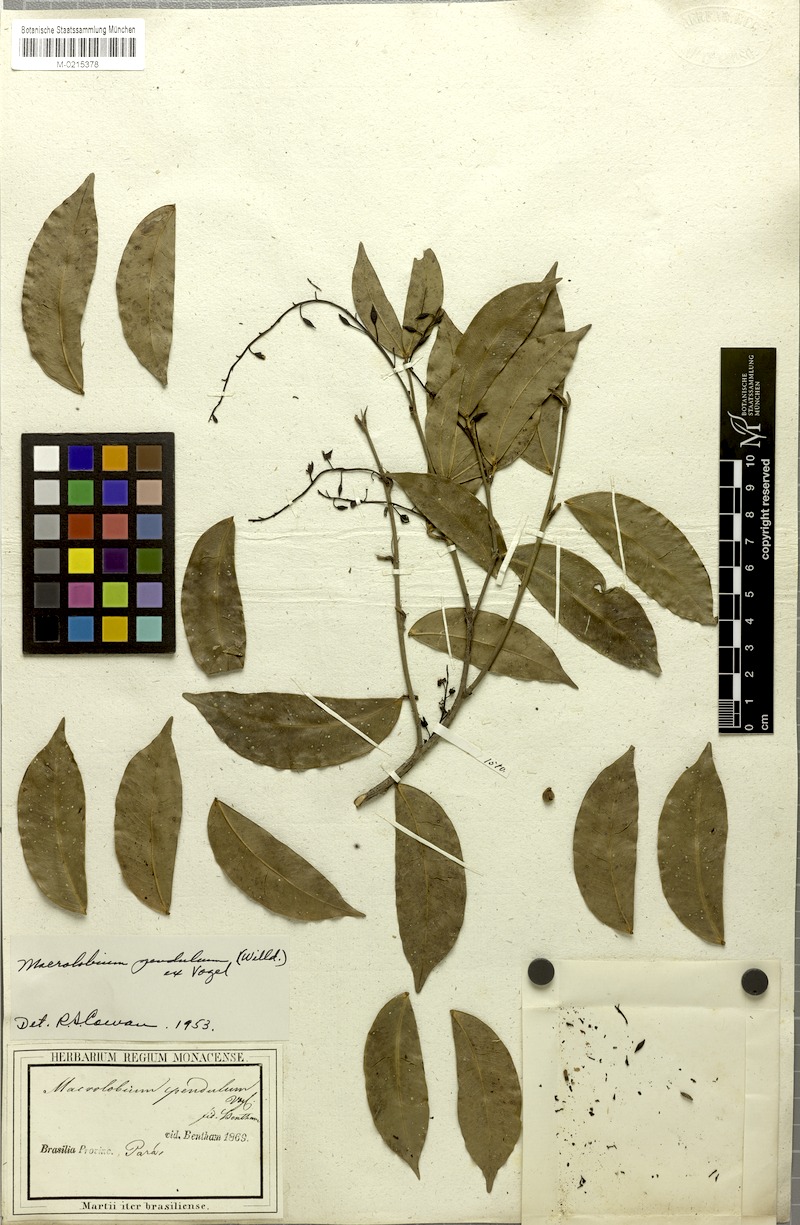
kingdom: Plantae
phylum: Tracheophyta
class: Magnoliopsida
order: Fabales
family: Fabaceae
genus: Macrolobium
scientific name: Macrolobium pendulum
